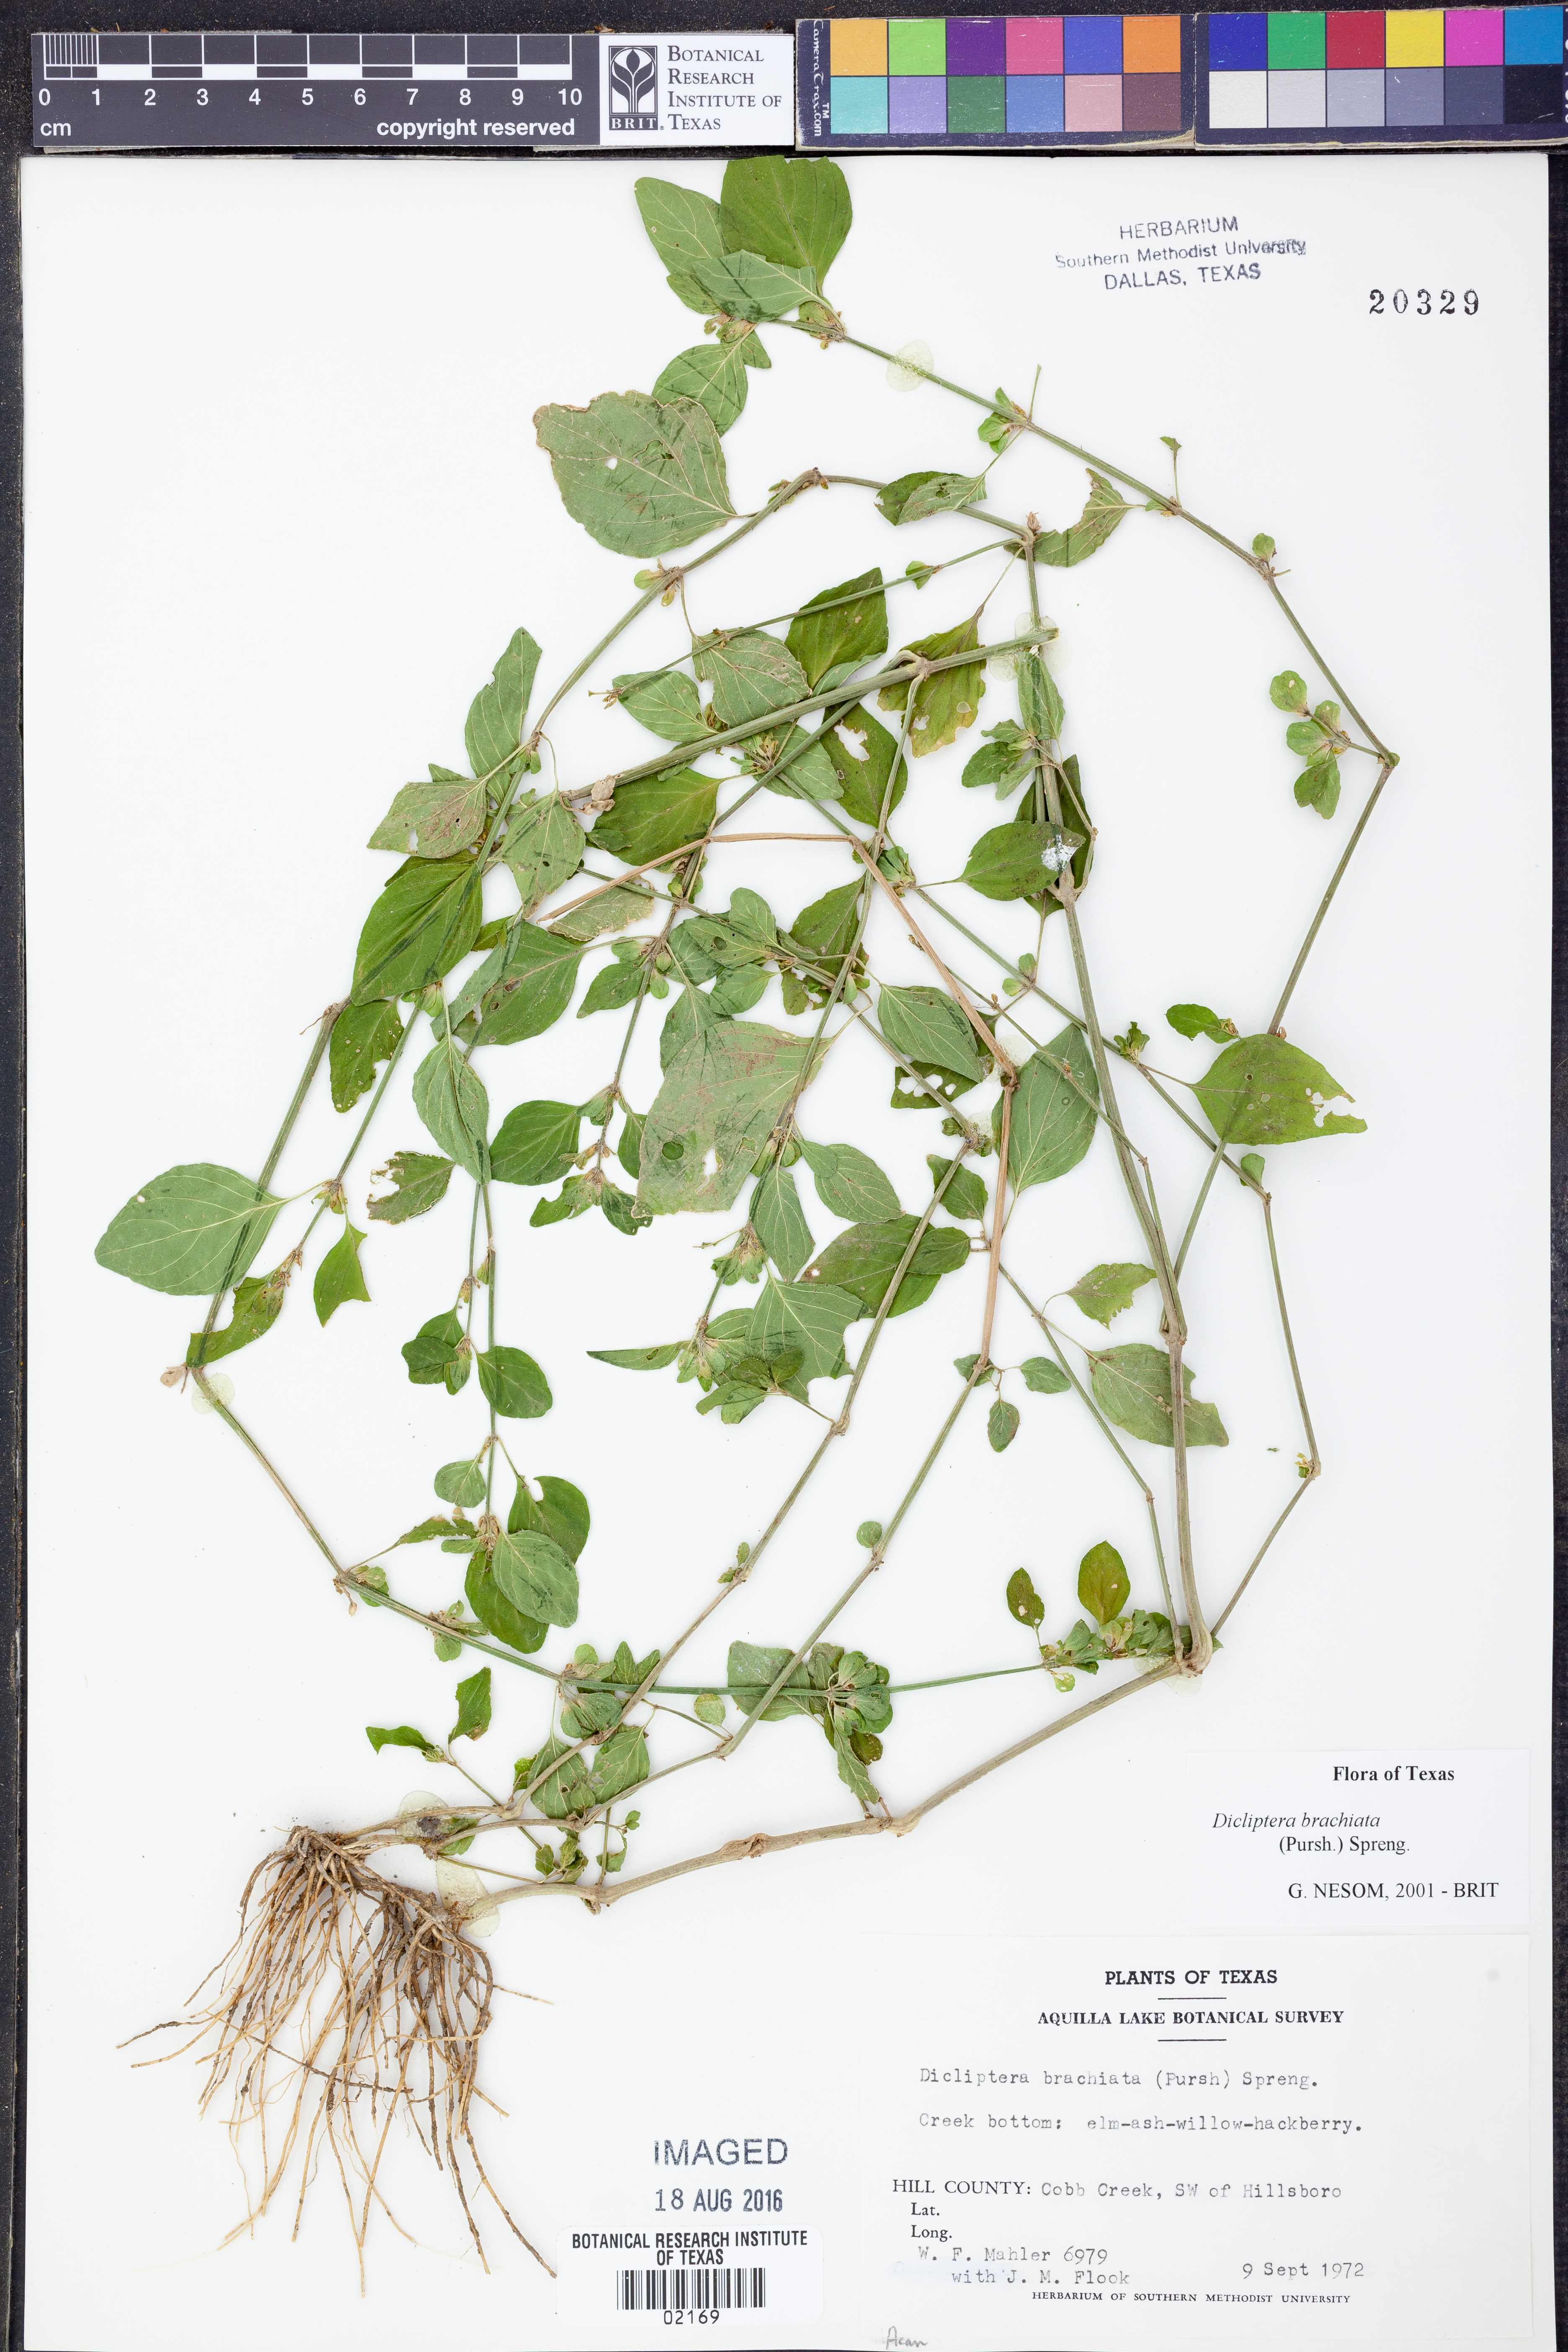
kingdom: Plantae
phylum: Tracheophyta
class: Magnoliopsida
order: Lamiales
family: Acanthaceae
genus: Dicliptera
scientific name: Dicliptera brachiata
